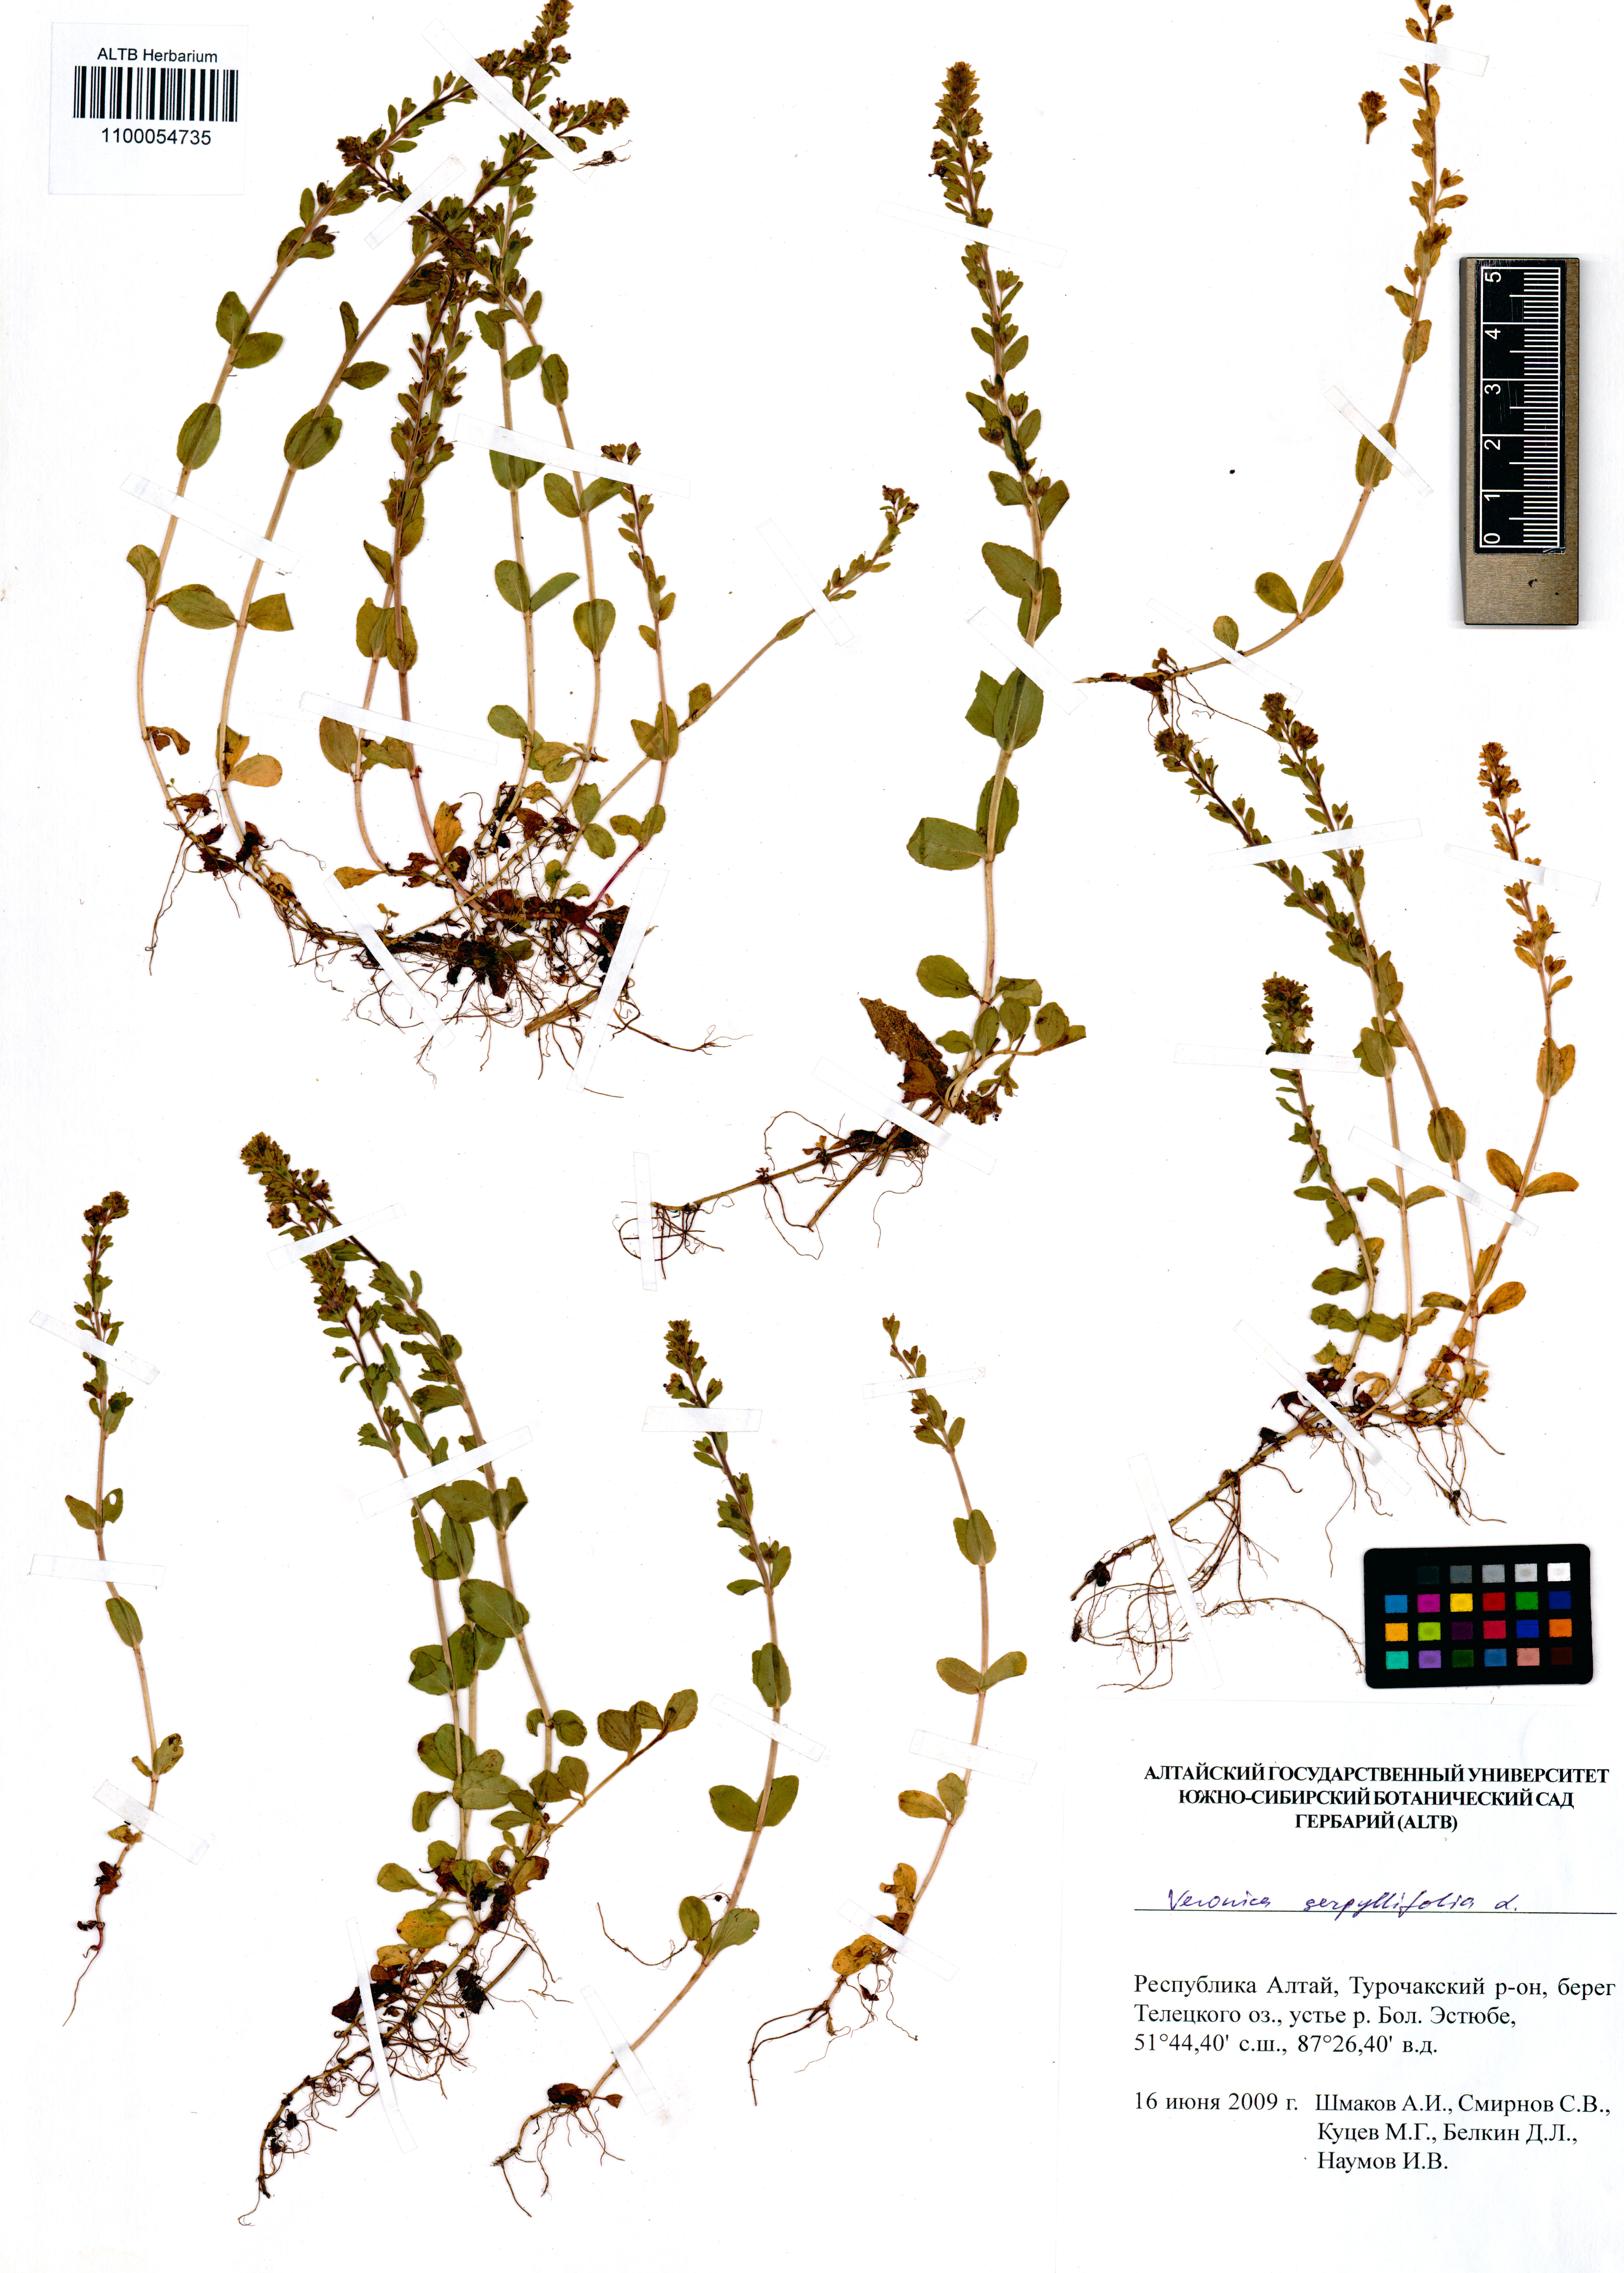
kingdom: Plantae
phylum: Tracheophyta
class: Magnoliopsida
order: Lamiales
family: Plantaginaceae
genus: Veronica
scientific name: Veronica serpyllifolia
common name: Thyme-leaved speedwell
